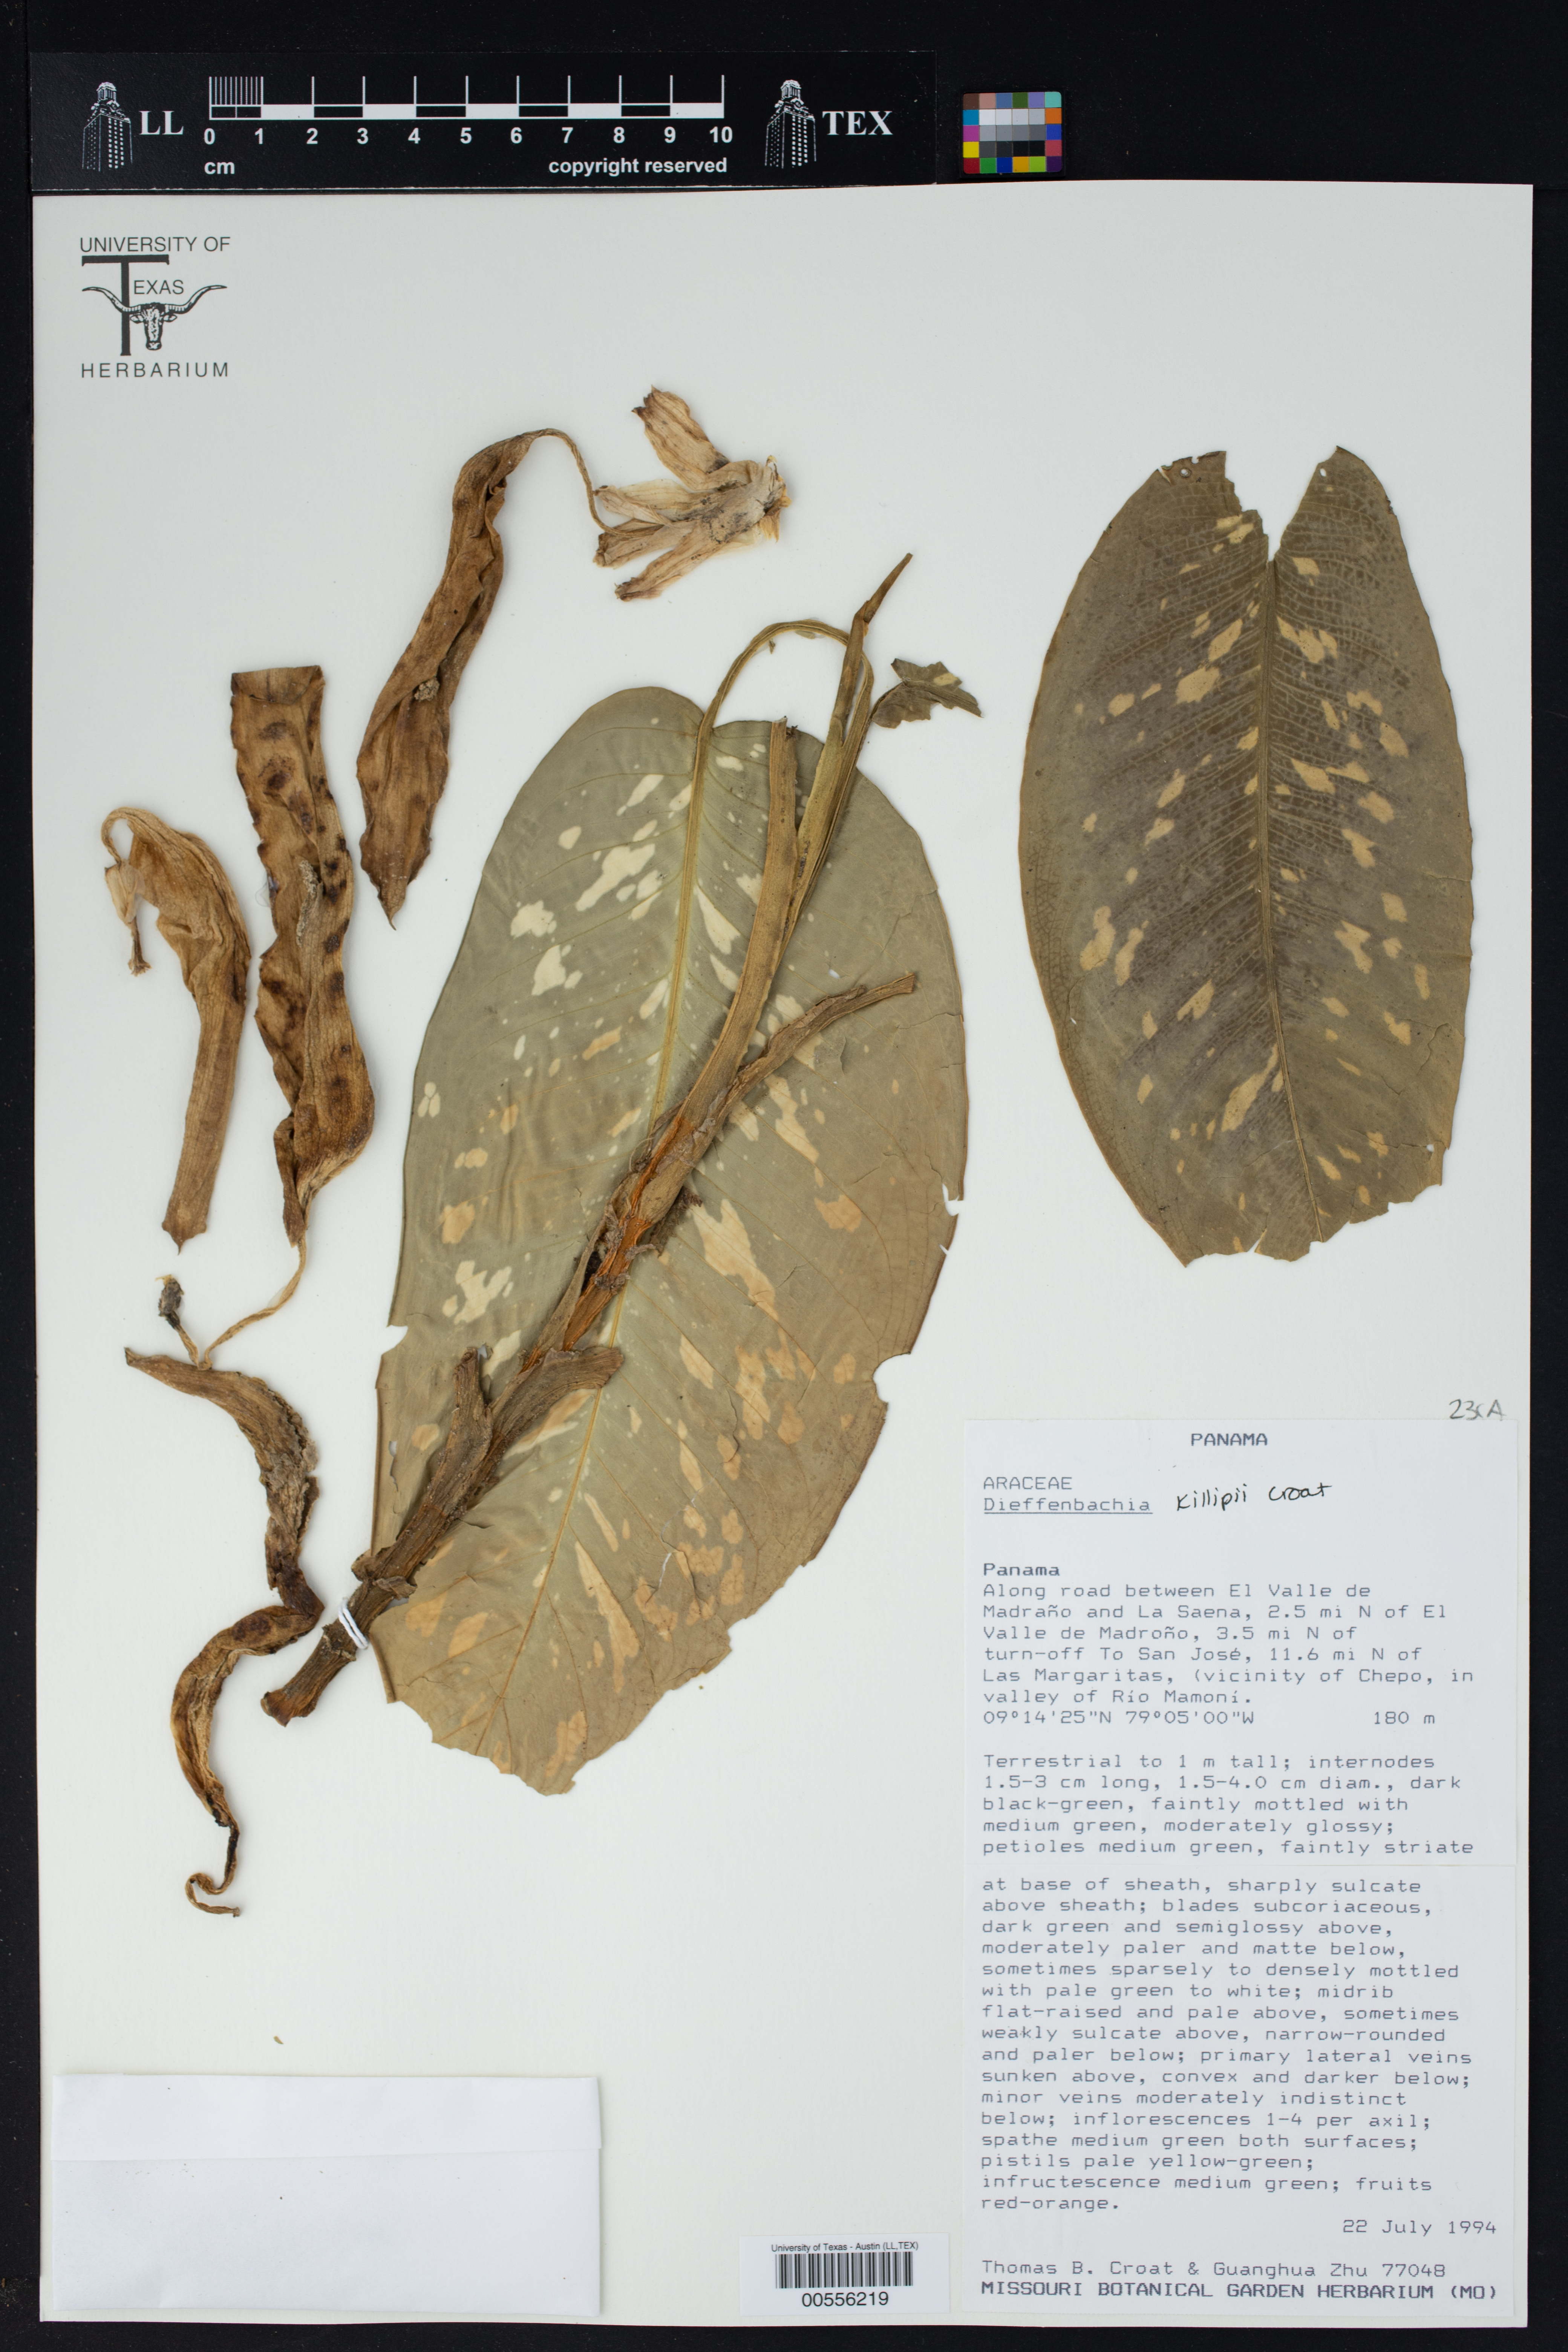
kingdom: Plantae
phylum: Tracheophyta
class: Liliopsida
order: Alismatales
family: Araceae
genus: Dieffenbachia
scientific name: Dieffenbachia
